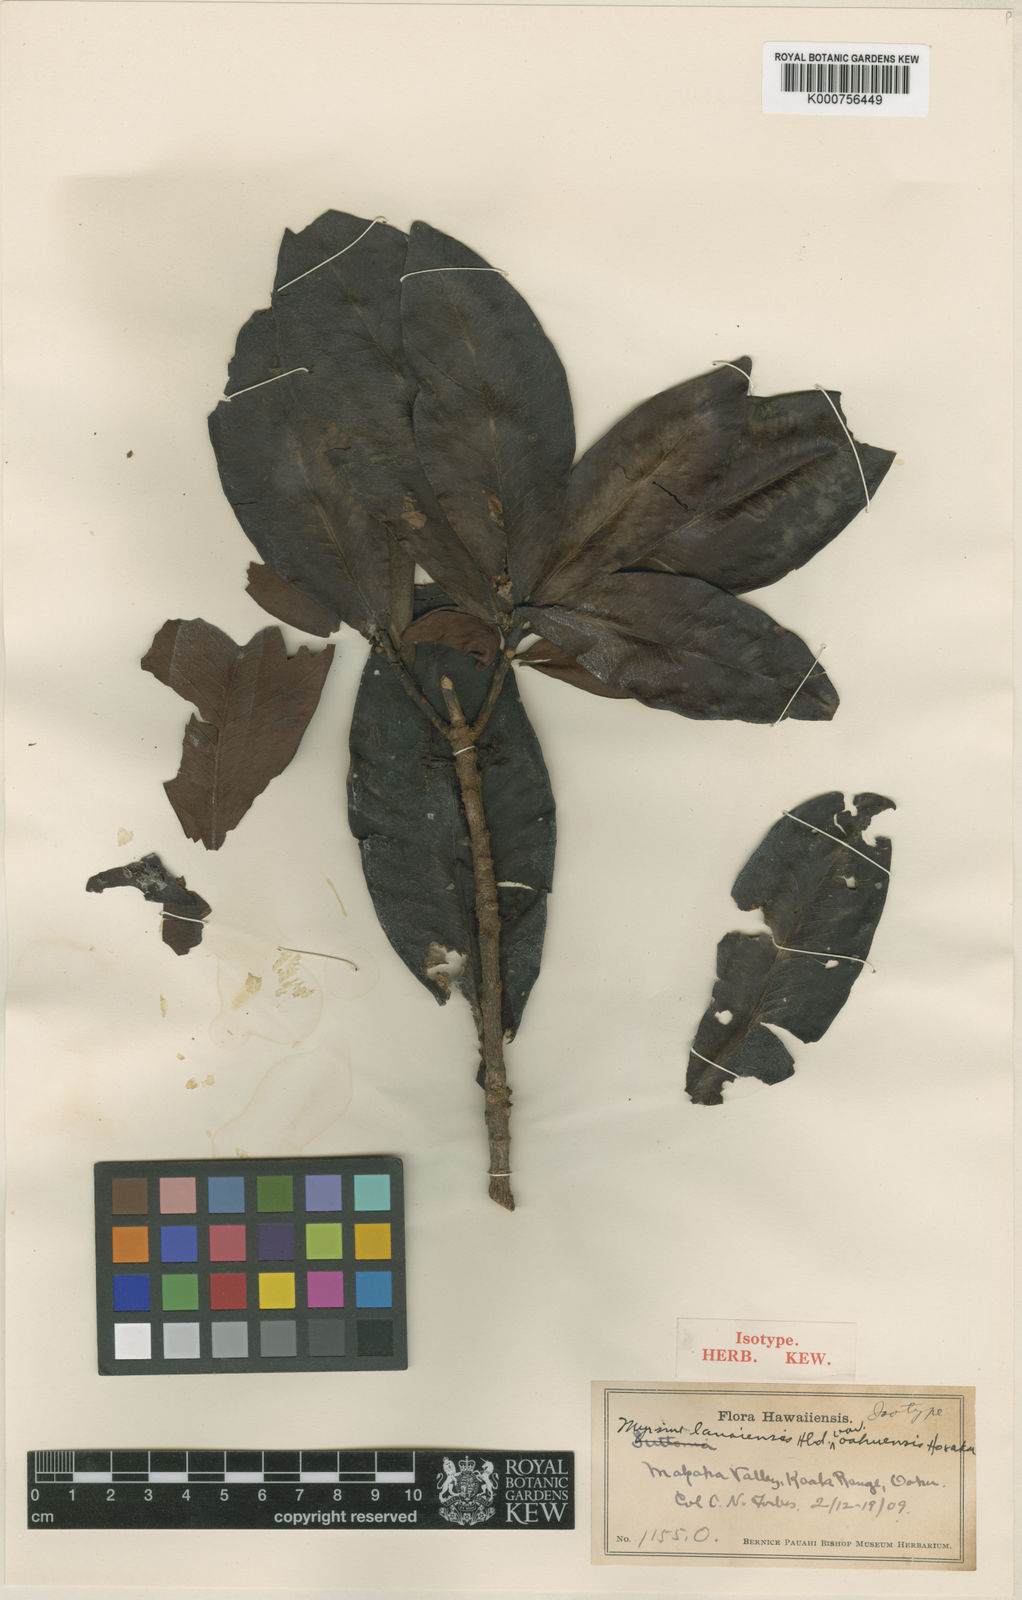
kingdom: Plantae
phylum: Tracheophyta
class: Magnoliopsida
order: Ericales
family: Primulaceae
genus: Myrsine
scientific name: Myrsine lanaiensis
